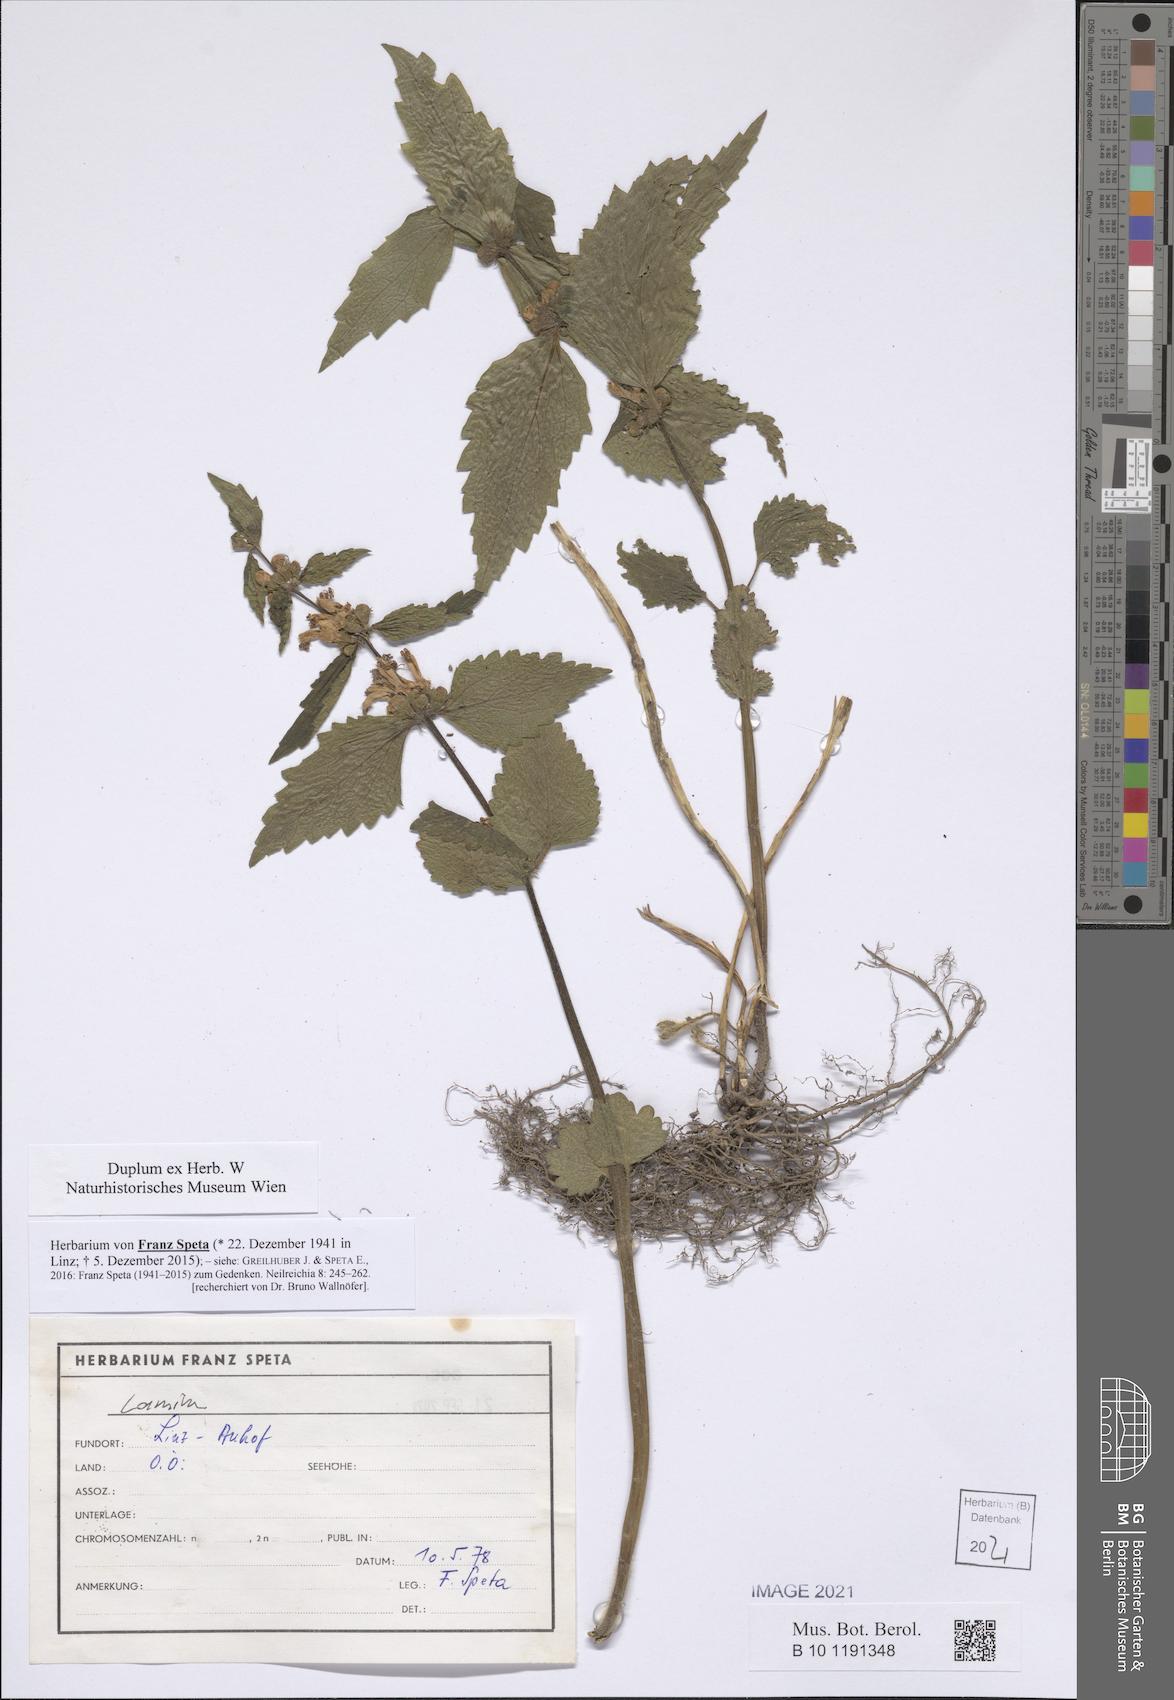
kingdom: Plantae
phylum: Tracheophyta
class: Magnoliopsida
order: Lamiales
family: Lamiaceae
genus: Lamium
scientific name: Lamium
